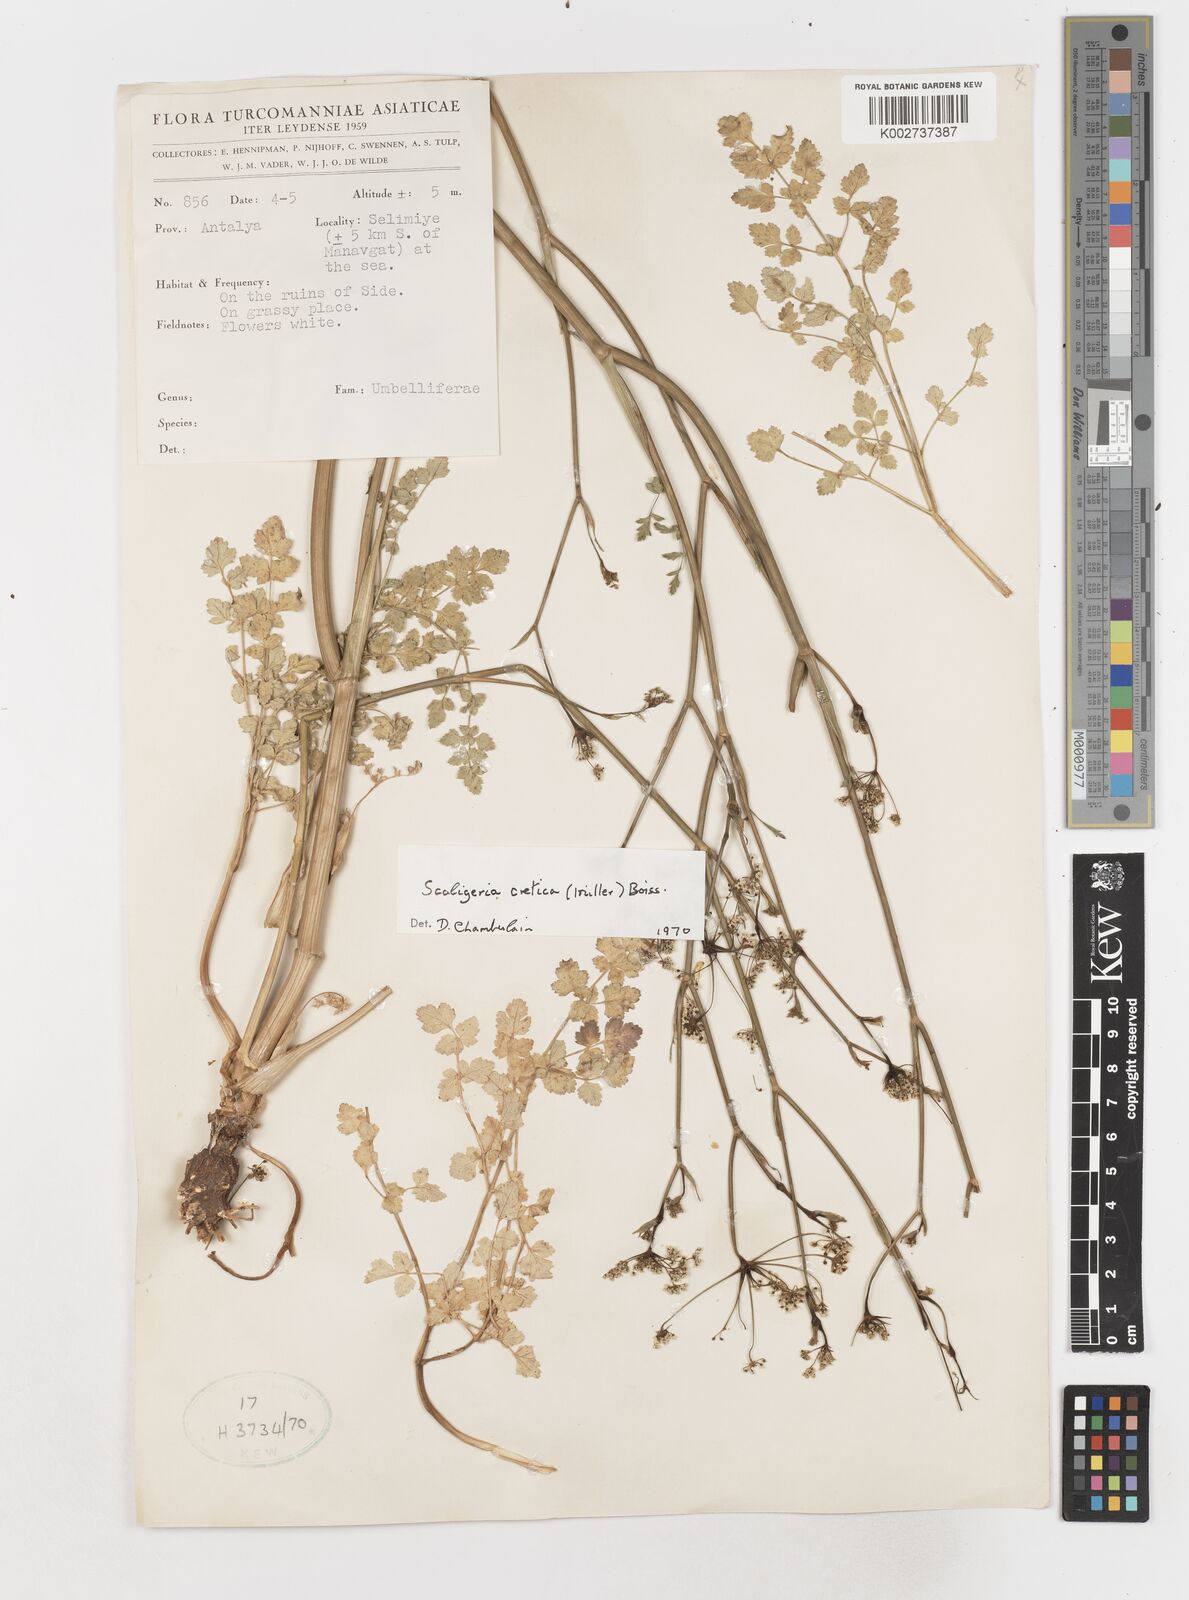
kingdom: Plantae
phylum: Tracheophyta
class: Magnoliopsida
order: Apiales
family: Apiaceae
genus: Scaligeria
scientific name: Scaligeria
